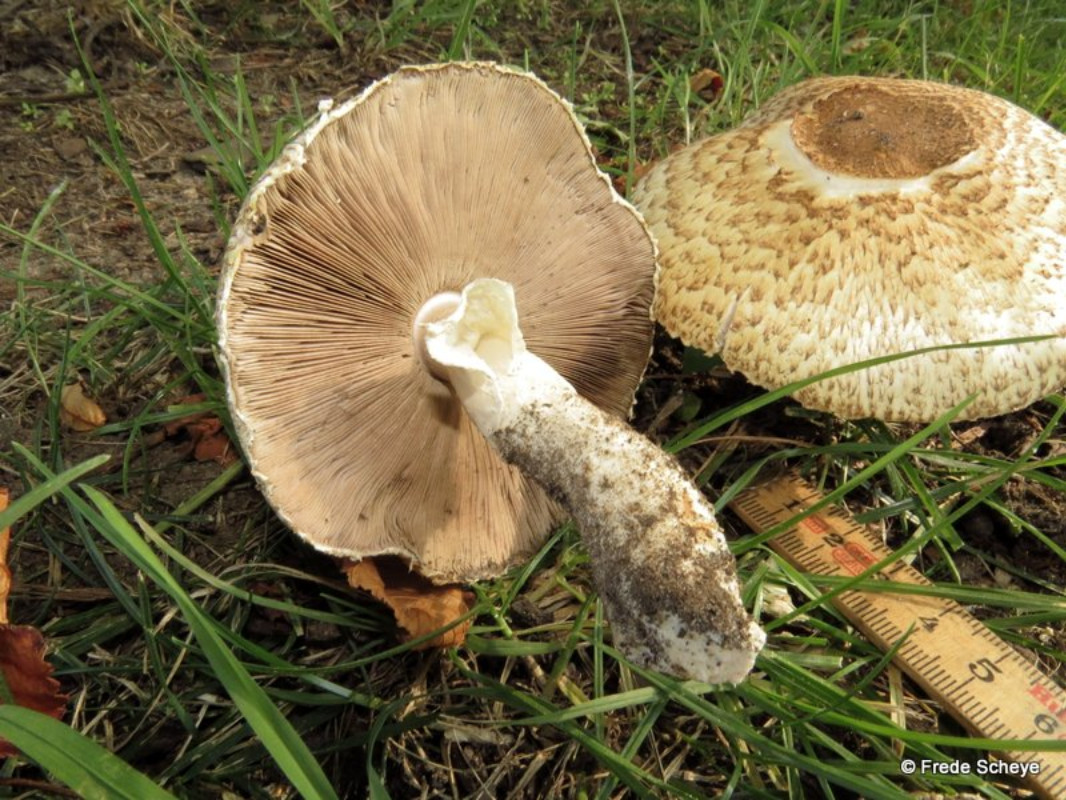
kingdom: Fungi
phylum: Basidiomycota
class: Agaricomycetes
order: Agaricales
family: Agaricaceae
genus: Agaricus
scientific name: Agaricus augustus
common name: prægtig champignon
